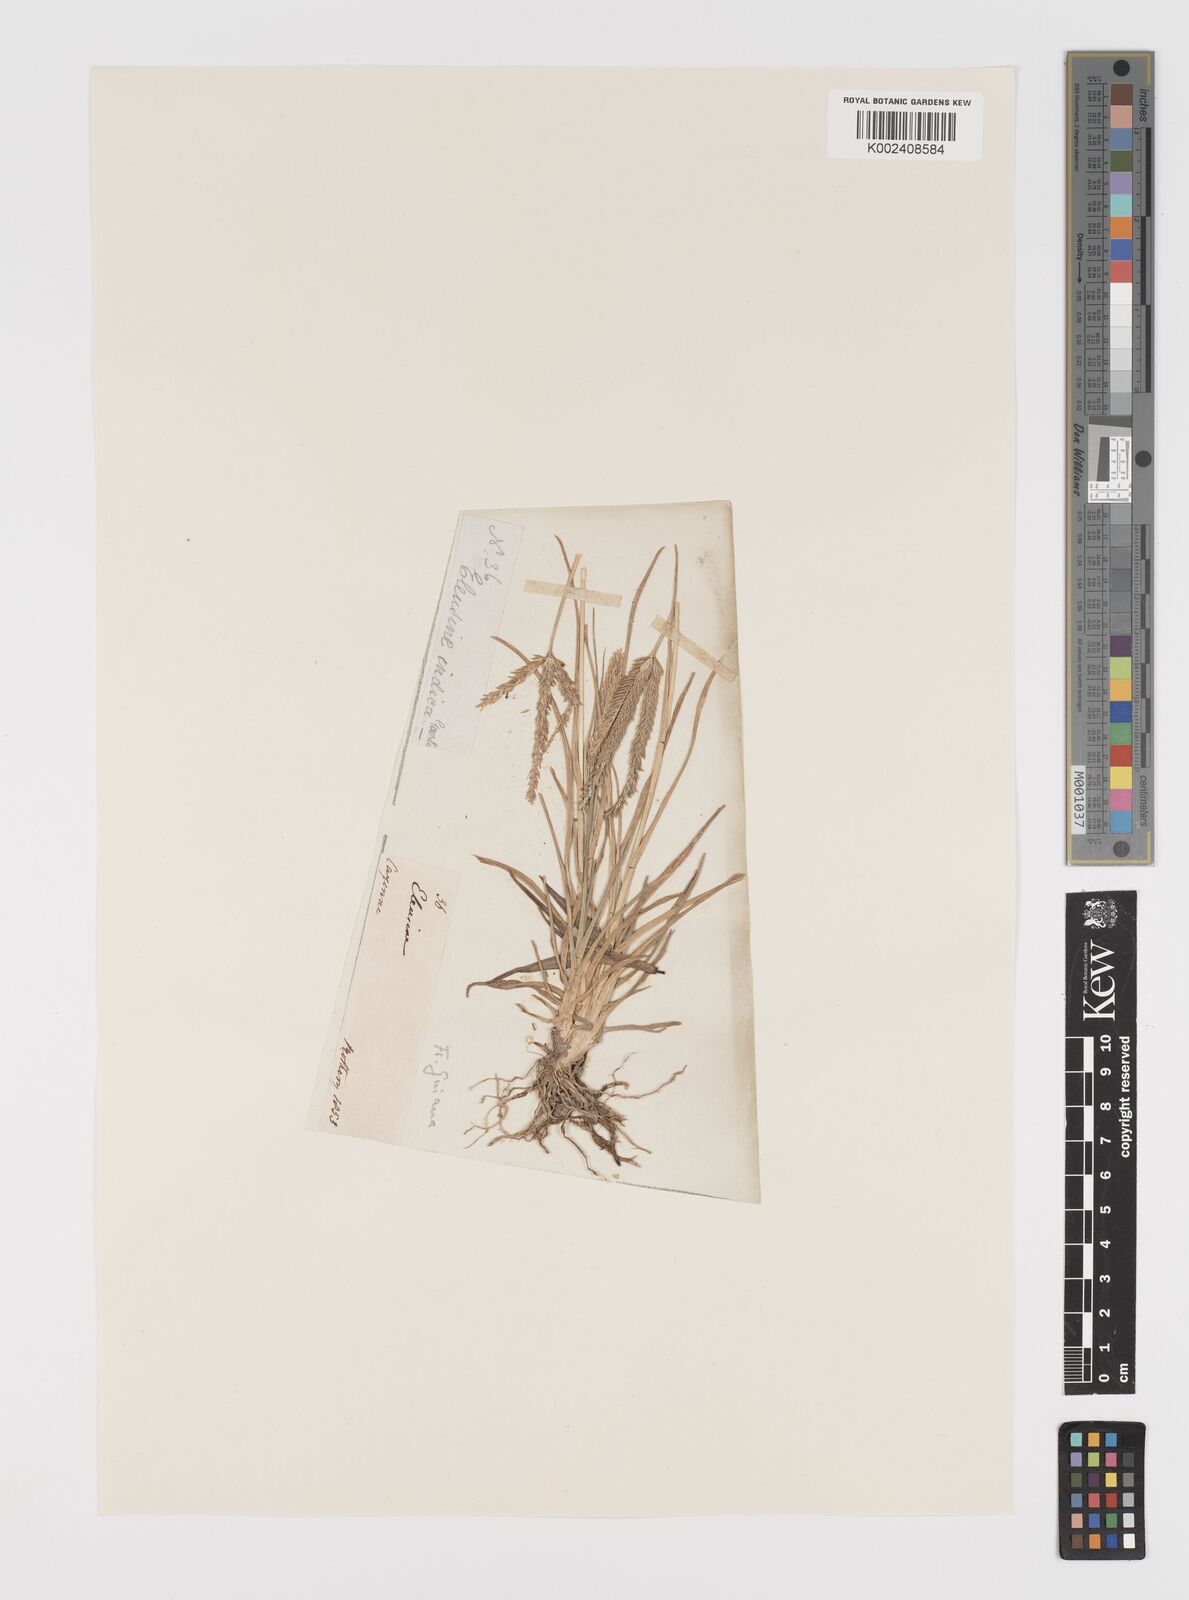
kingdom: Plantae
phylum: Tracheophyta
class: Liliopsida
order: Poales
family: Poaceae
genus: Eleusine
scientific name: Eleusine
